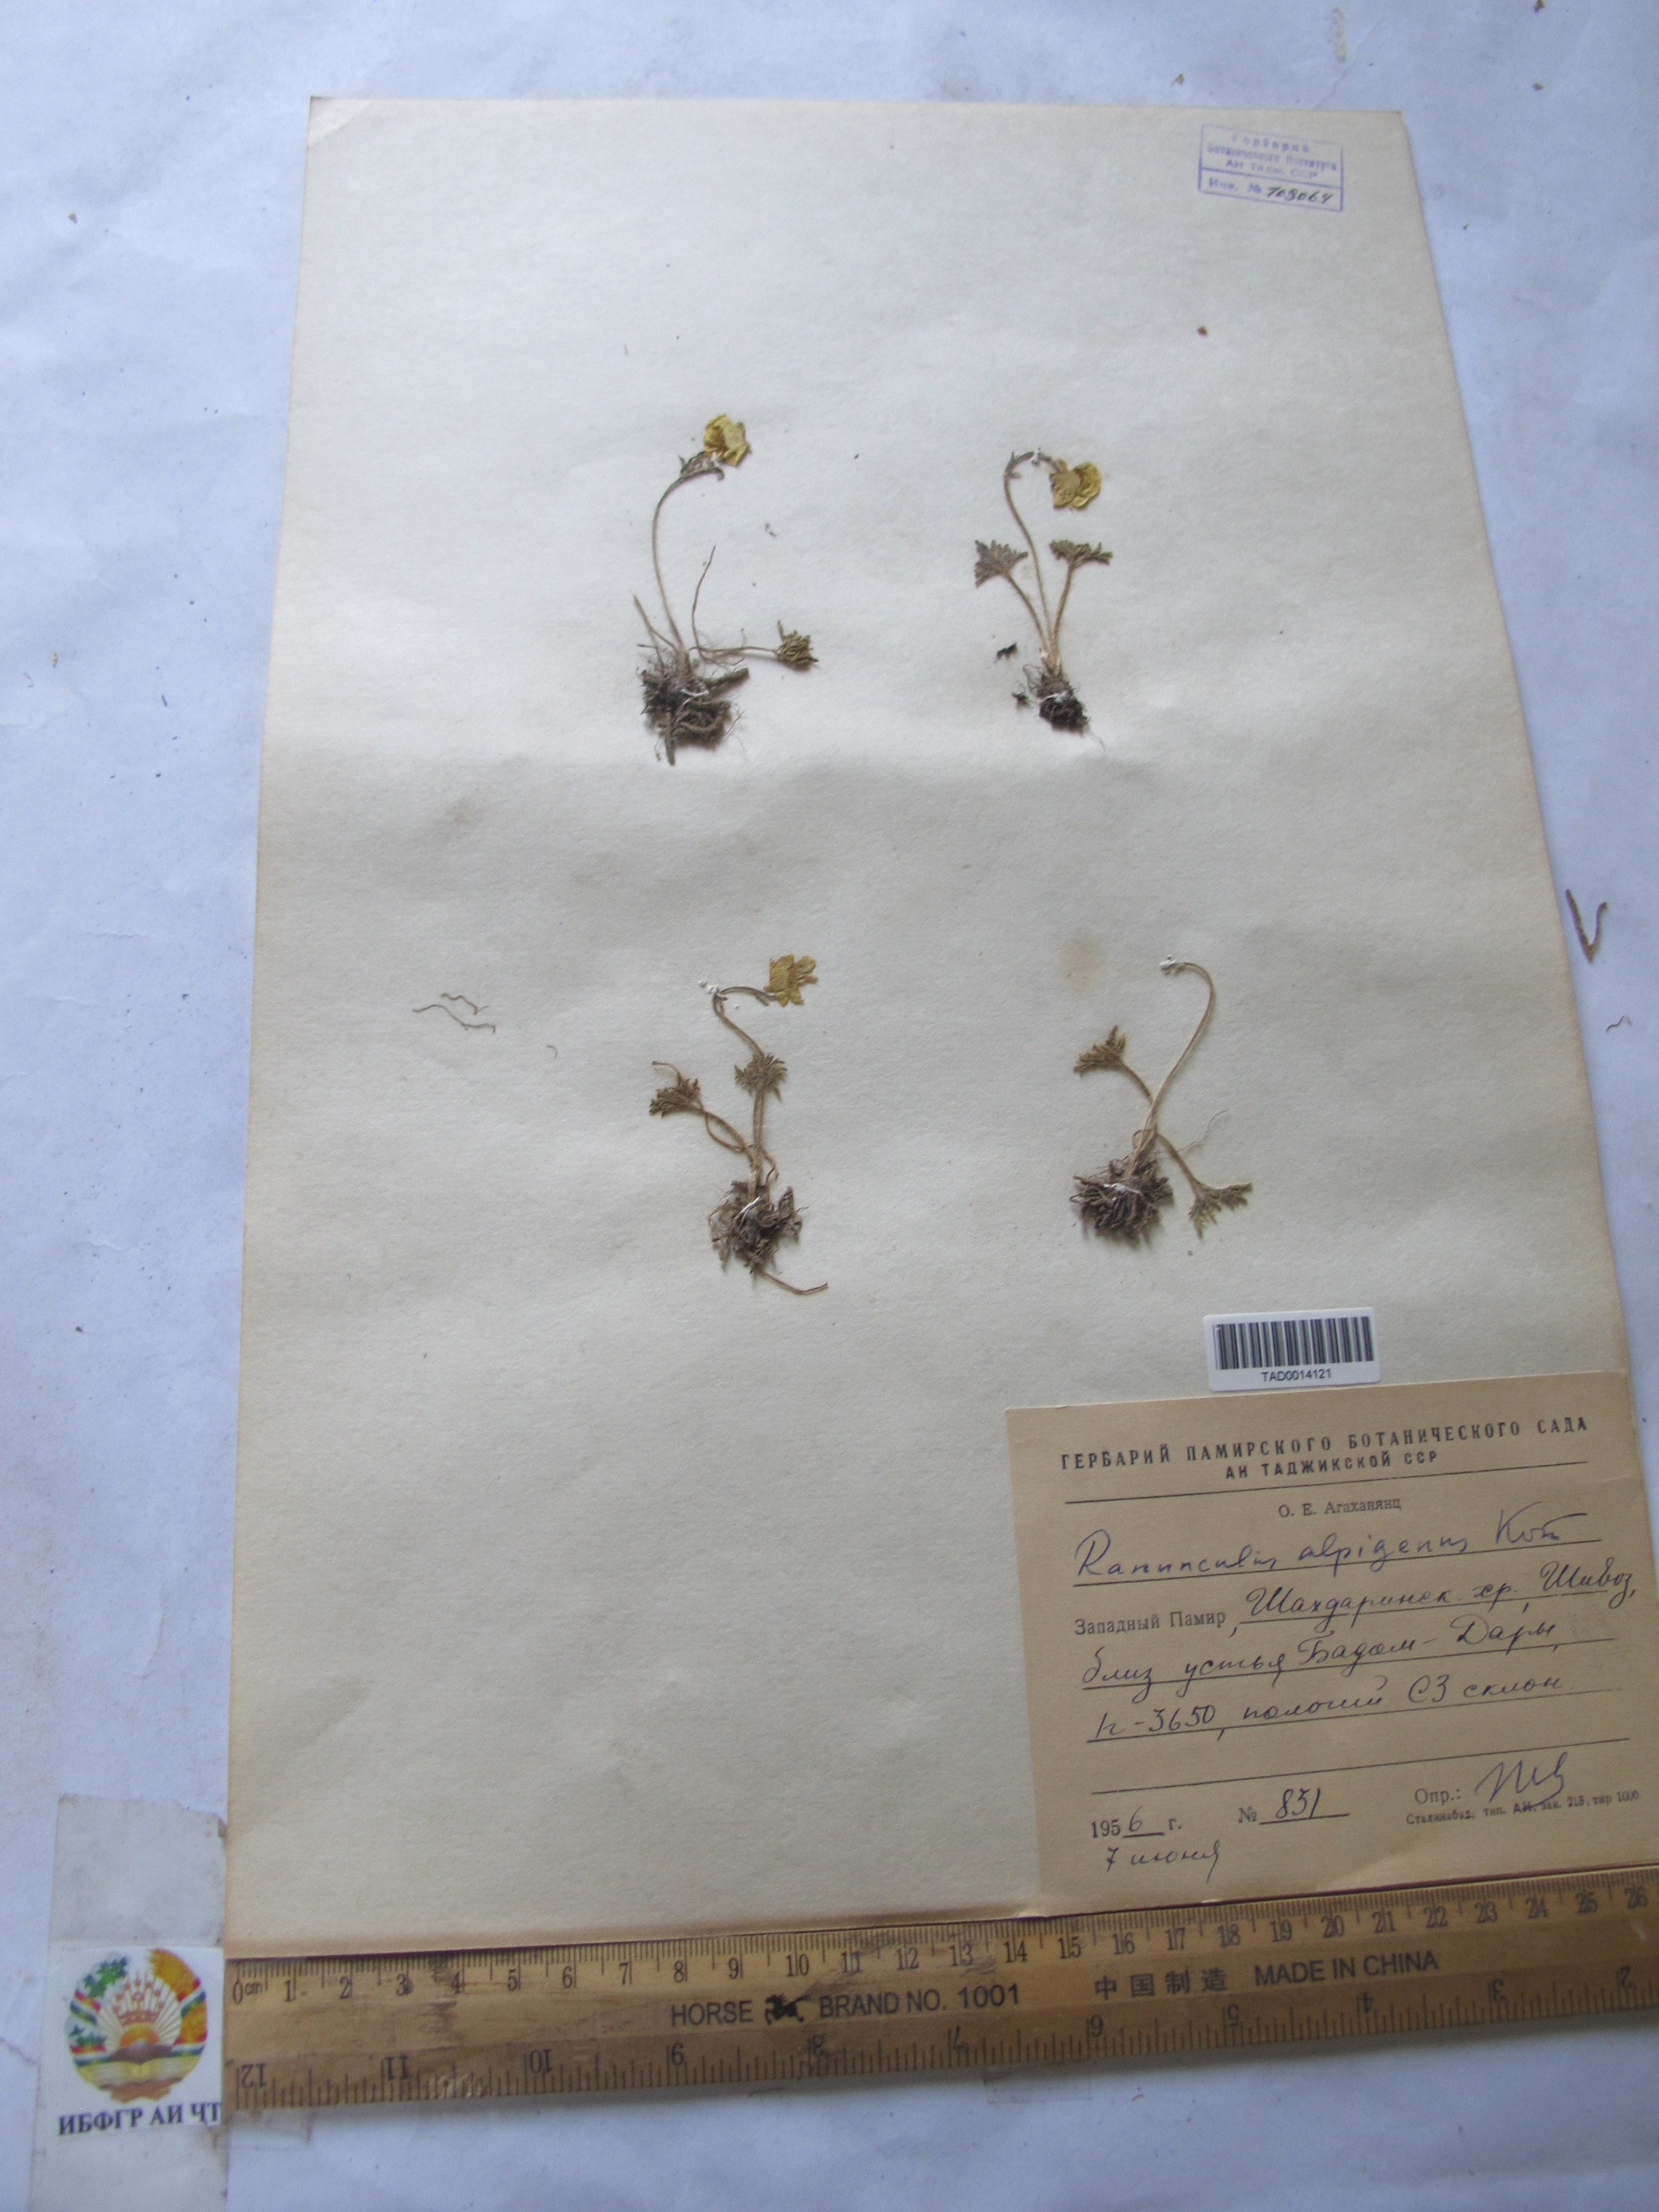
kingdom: Plantae
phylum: Tracheophyta
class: Magnoliopsida
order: Ranunculales
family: Ranunculaceae
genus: Ranunculus
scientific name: Ranunculus alpigenus
